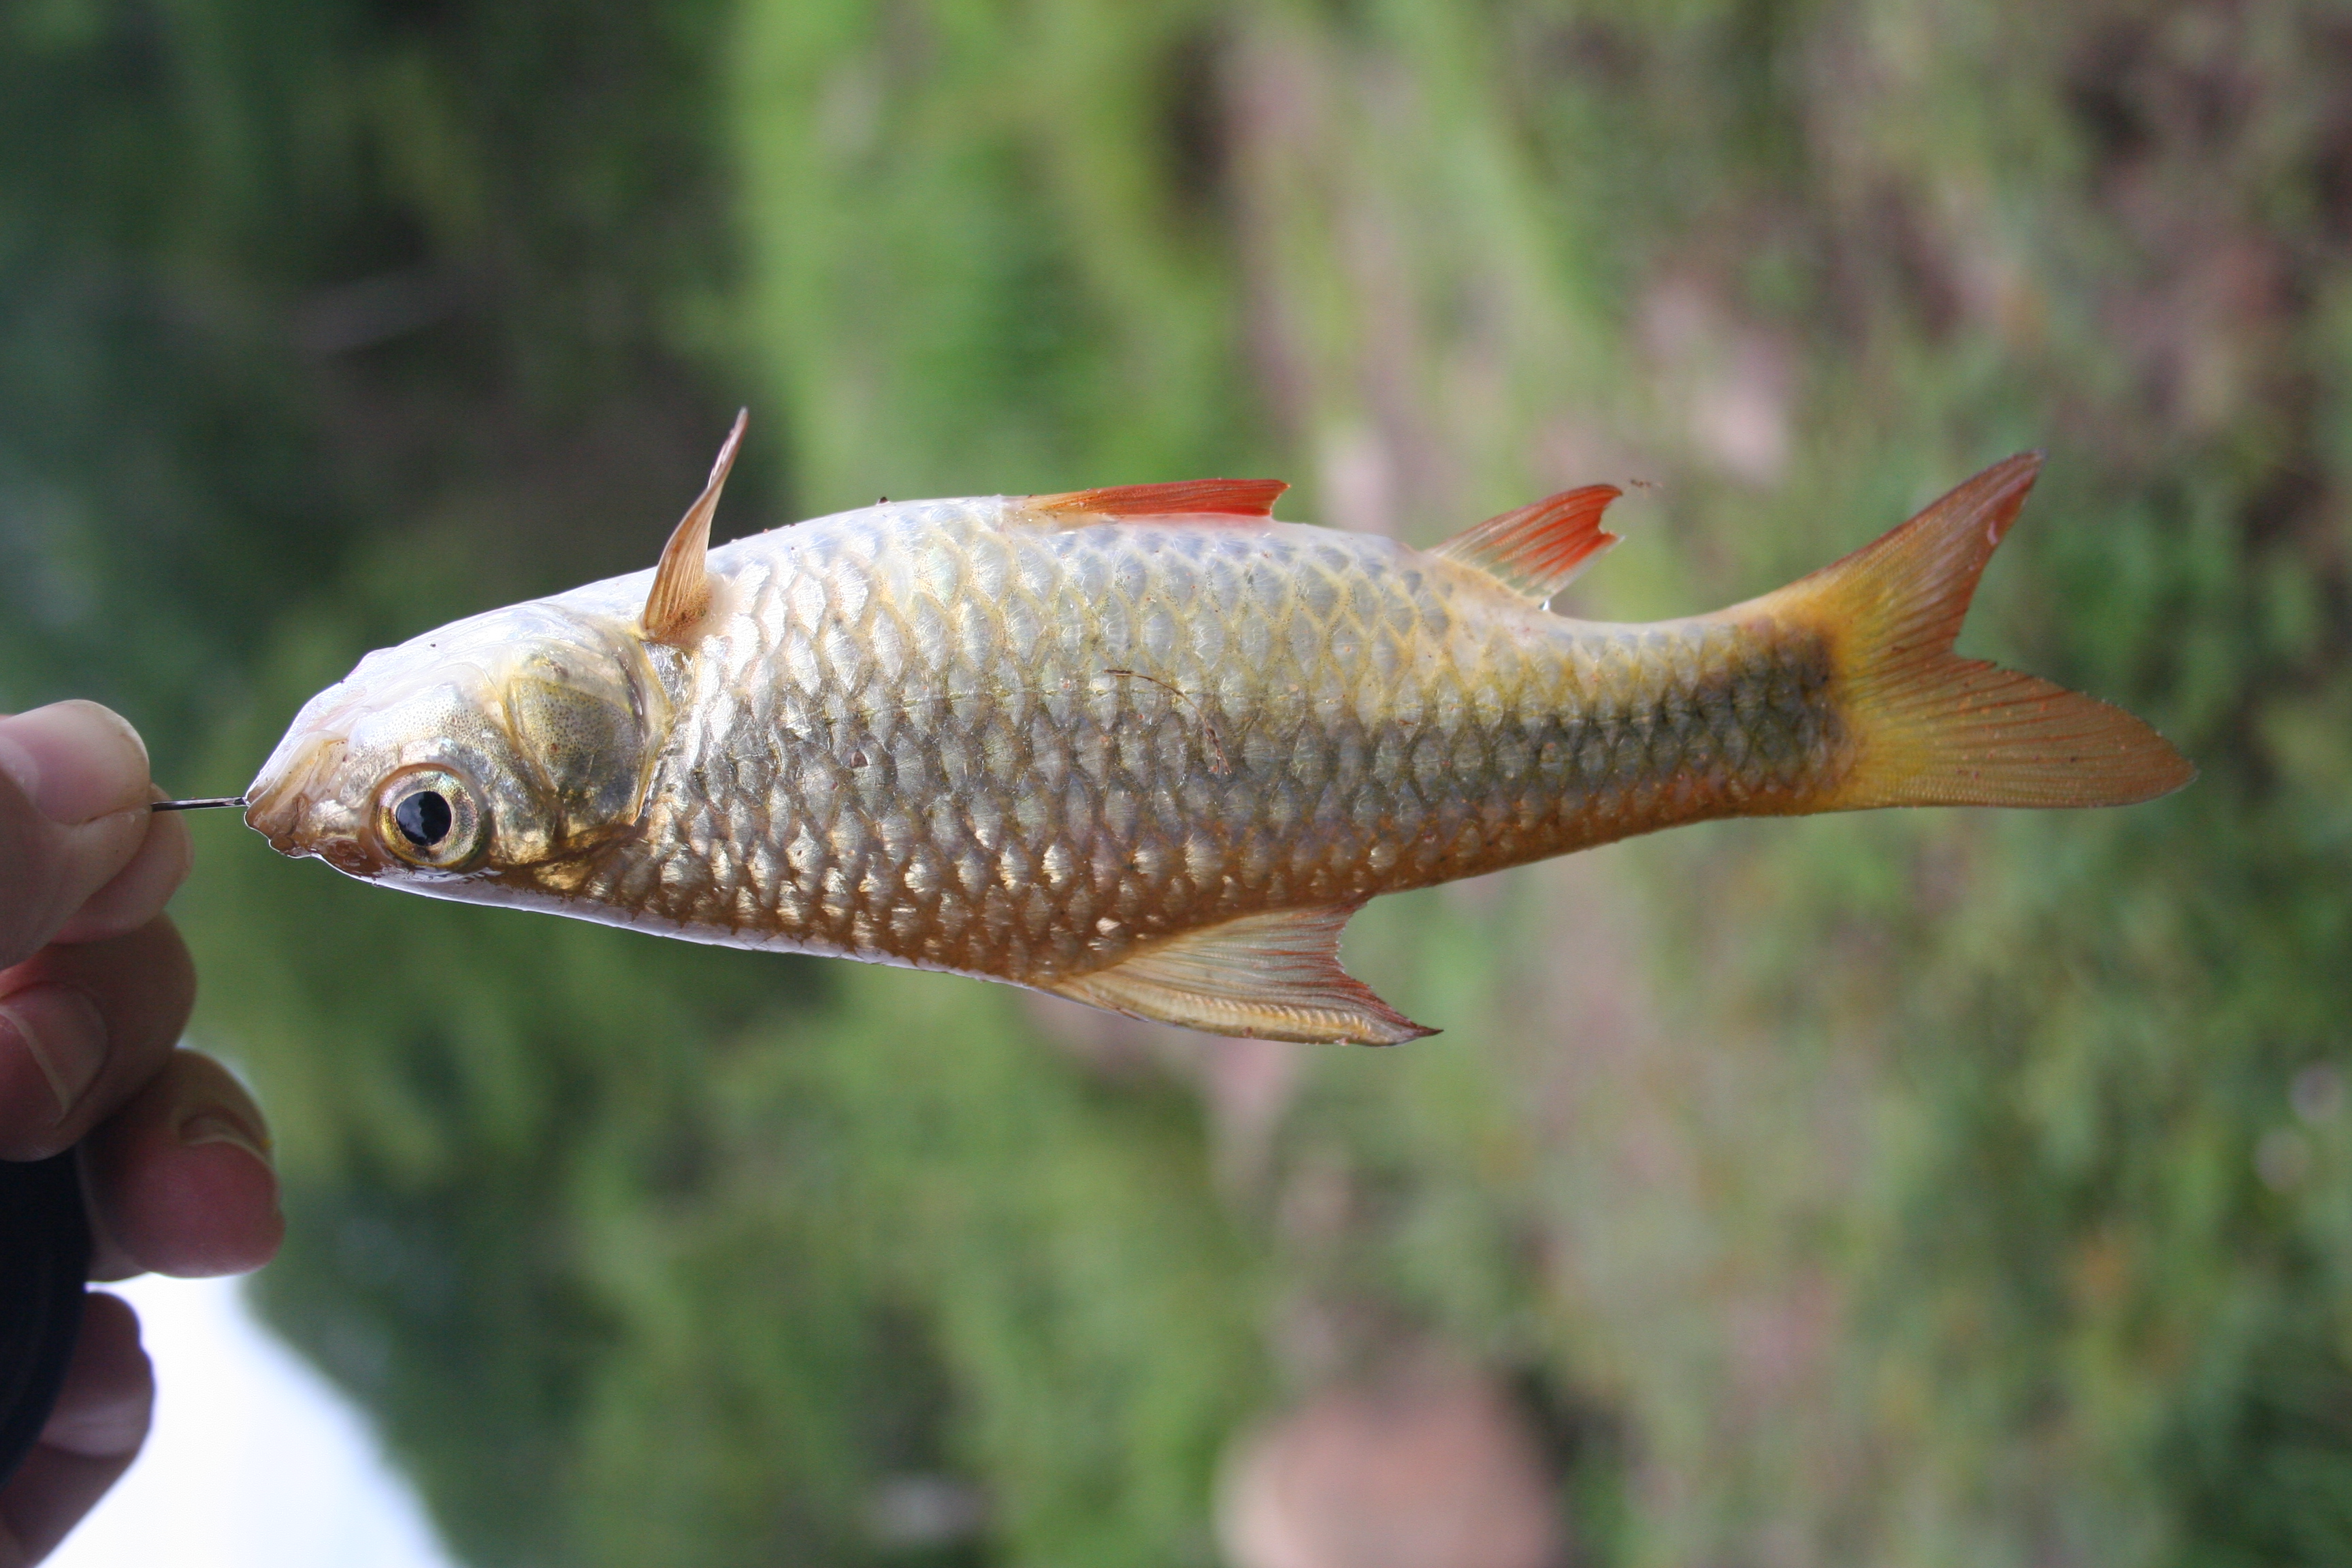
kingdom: Animalia
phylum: Chordata
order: Cypriniformes
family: Cyprinidae
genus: Enteromius
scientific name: Enteromius argenteus
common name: Rosefin barb
